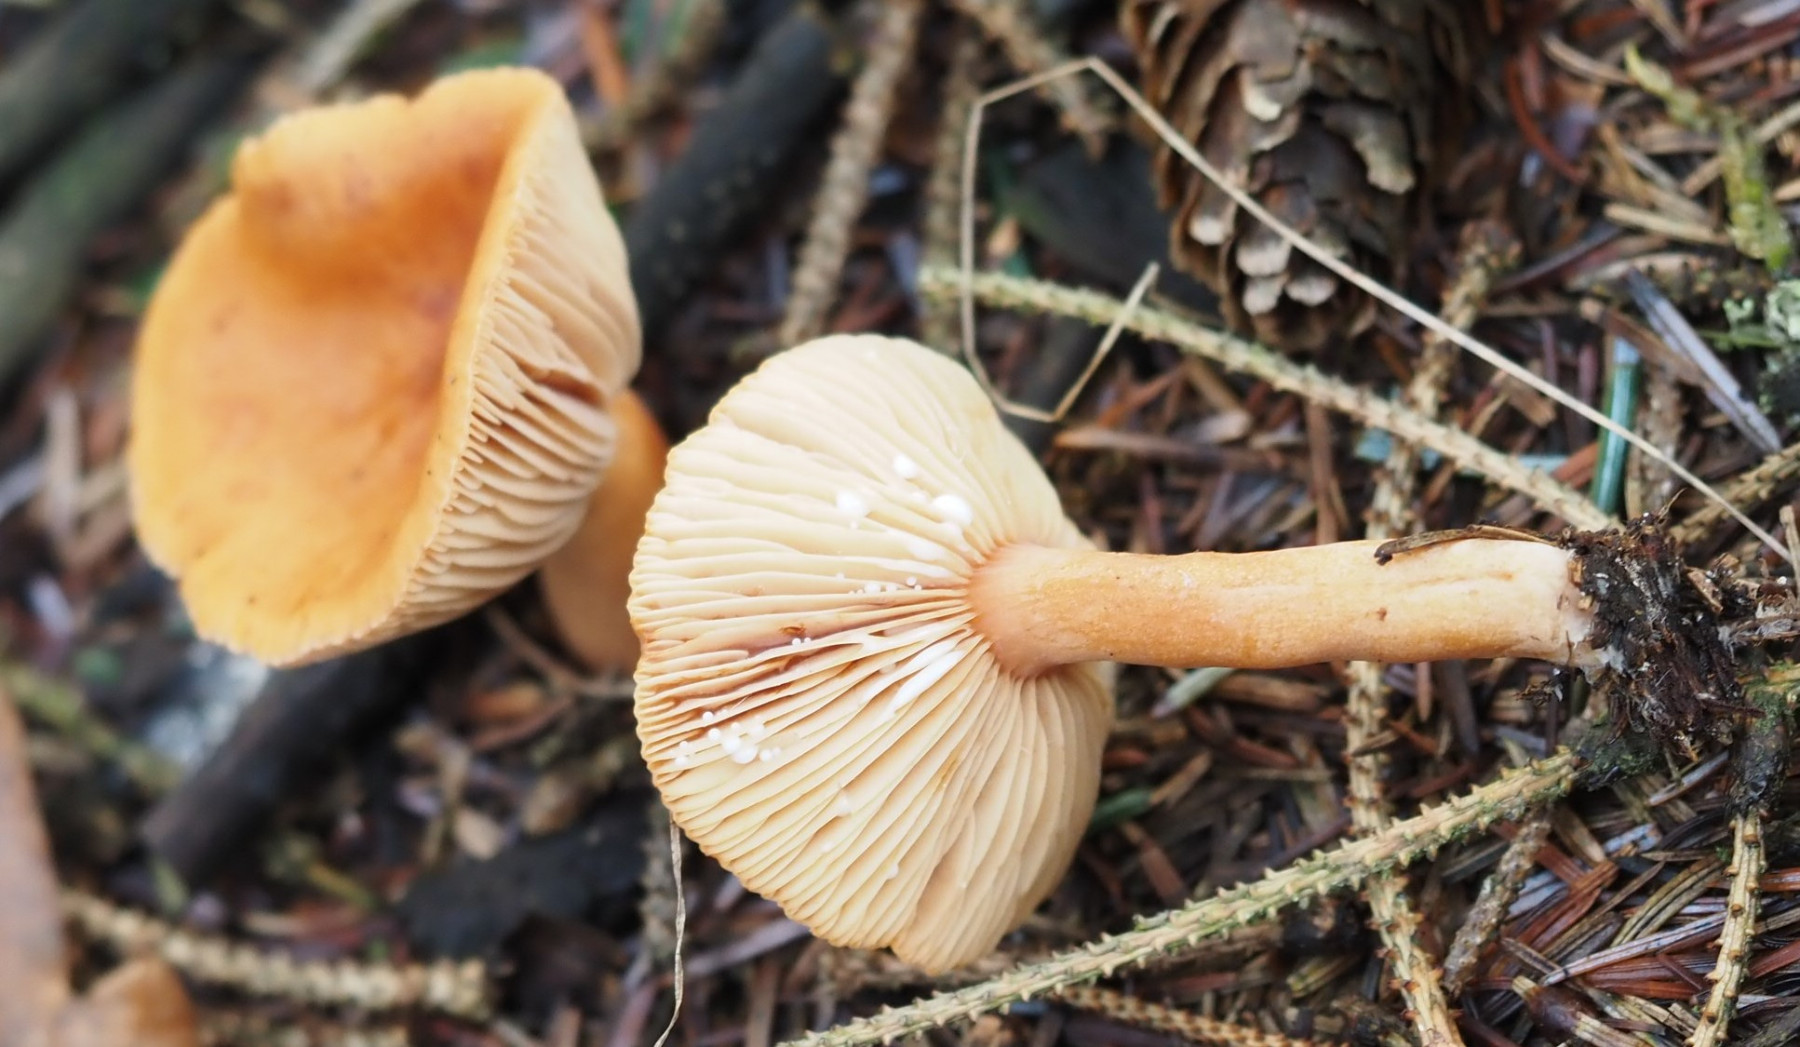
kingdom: Fungi
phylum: Basidiomycota
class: Agaricomycetes
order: Russulales
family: Russulaceae
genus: Lactarius
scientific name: Lactarius aurantiacus
